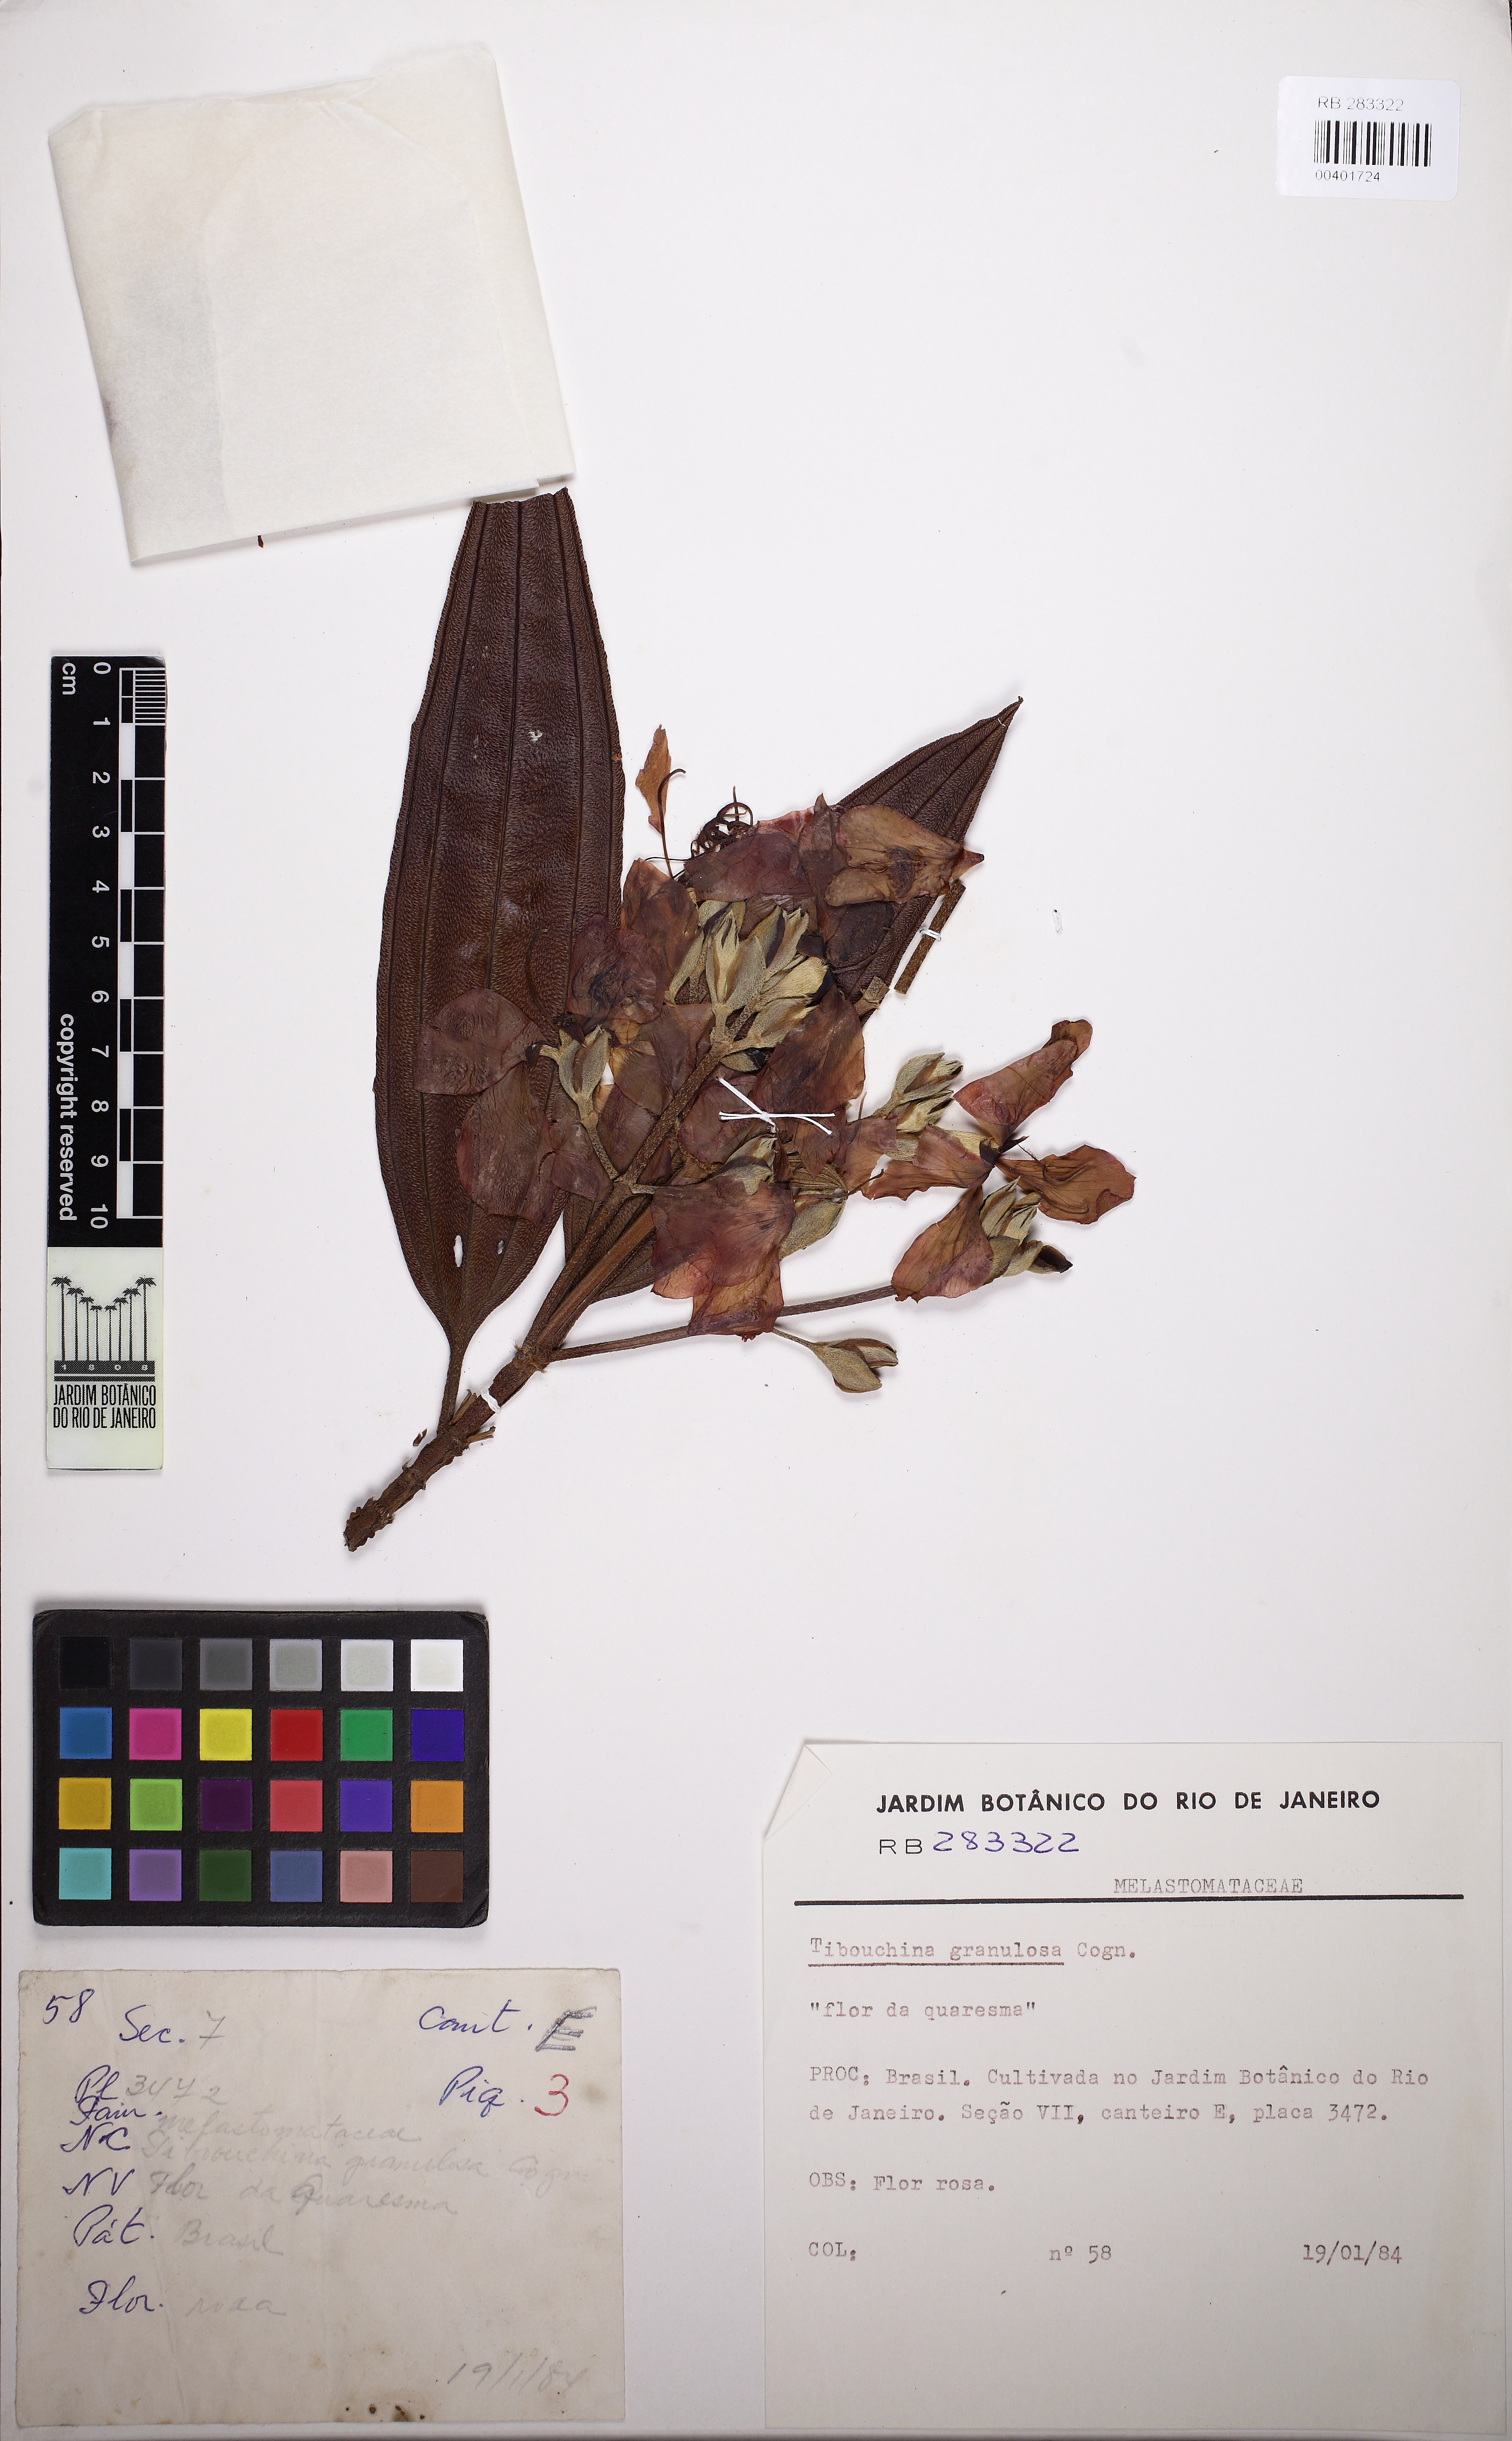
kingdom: Plantae
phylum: Tracheophyta
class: Magnoliopsida
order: Myrtales
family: Melastomataceae
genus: Pleroma
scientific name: Pleroma granulosum
